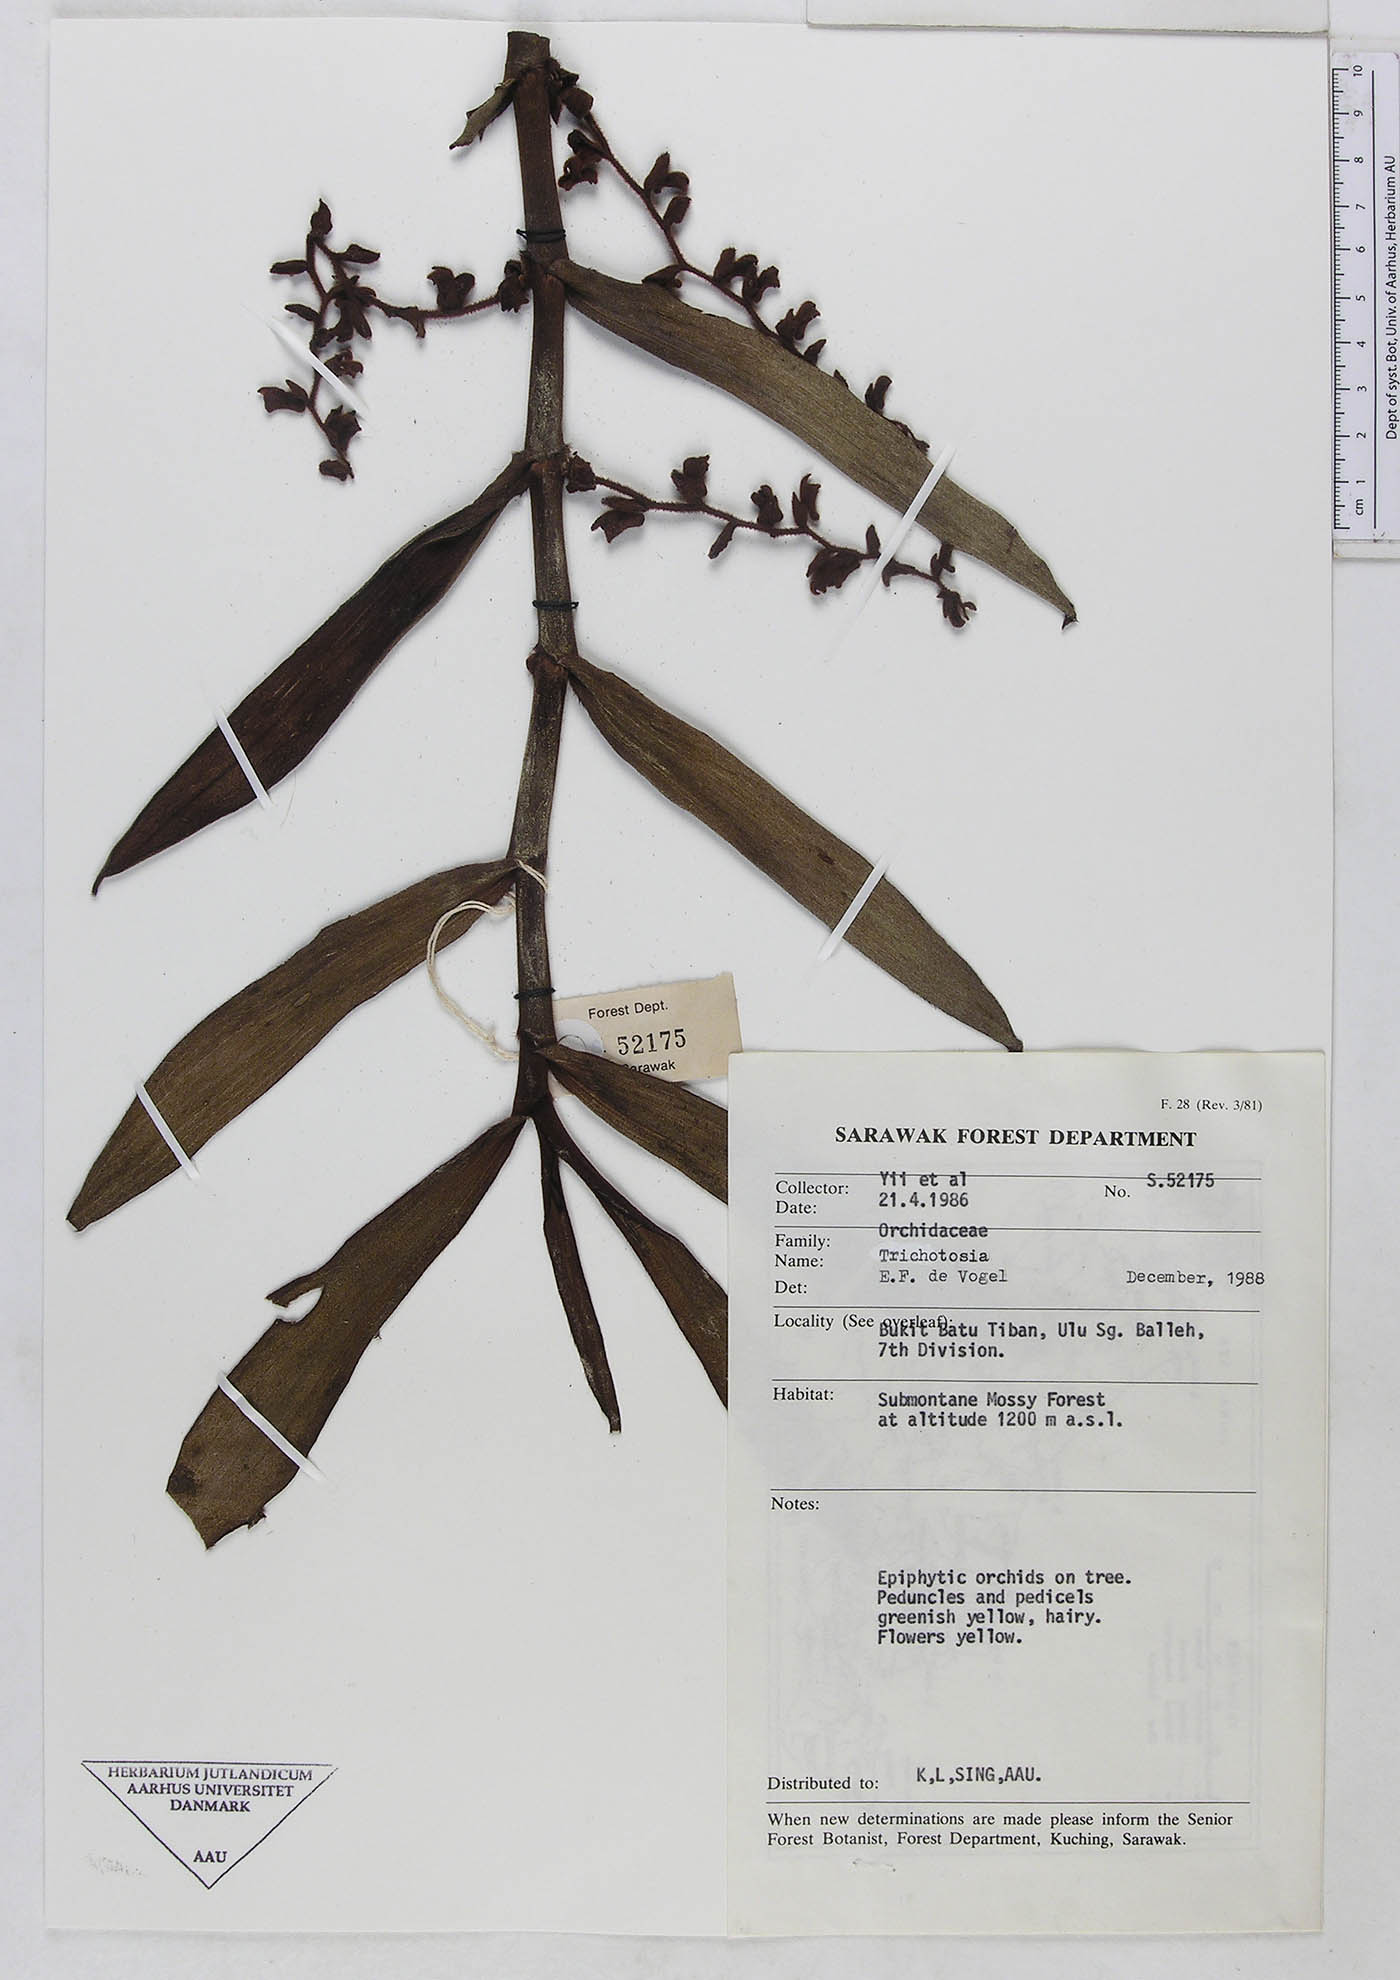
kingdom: Plantae
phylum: Tracheophyta
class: Liliopsida
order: Asparagales
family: Orchidaceae
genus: Trichotosia
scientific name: Trichotosia
